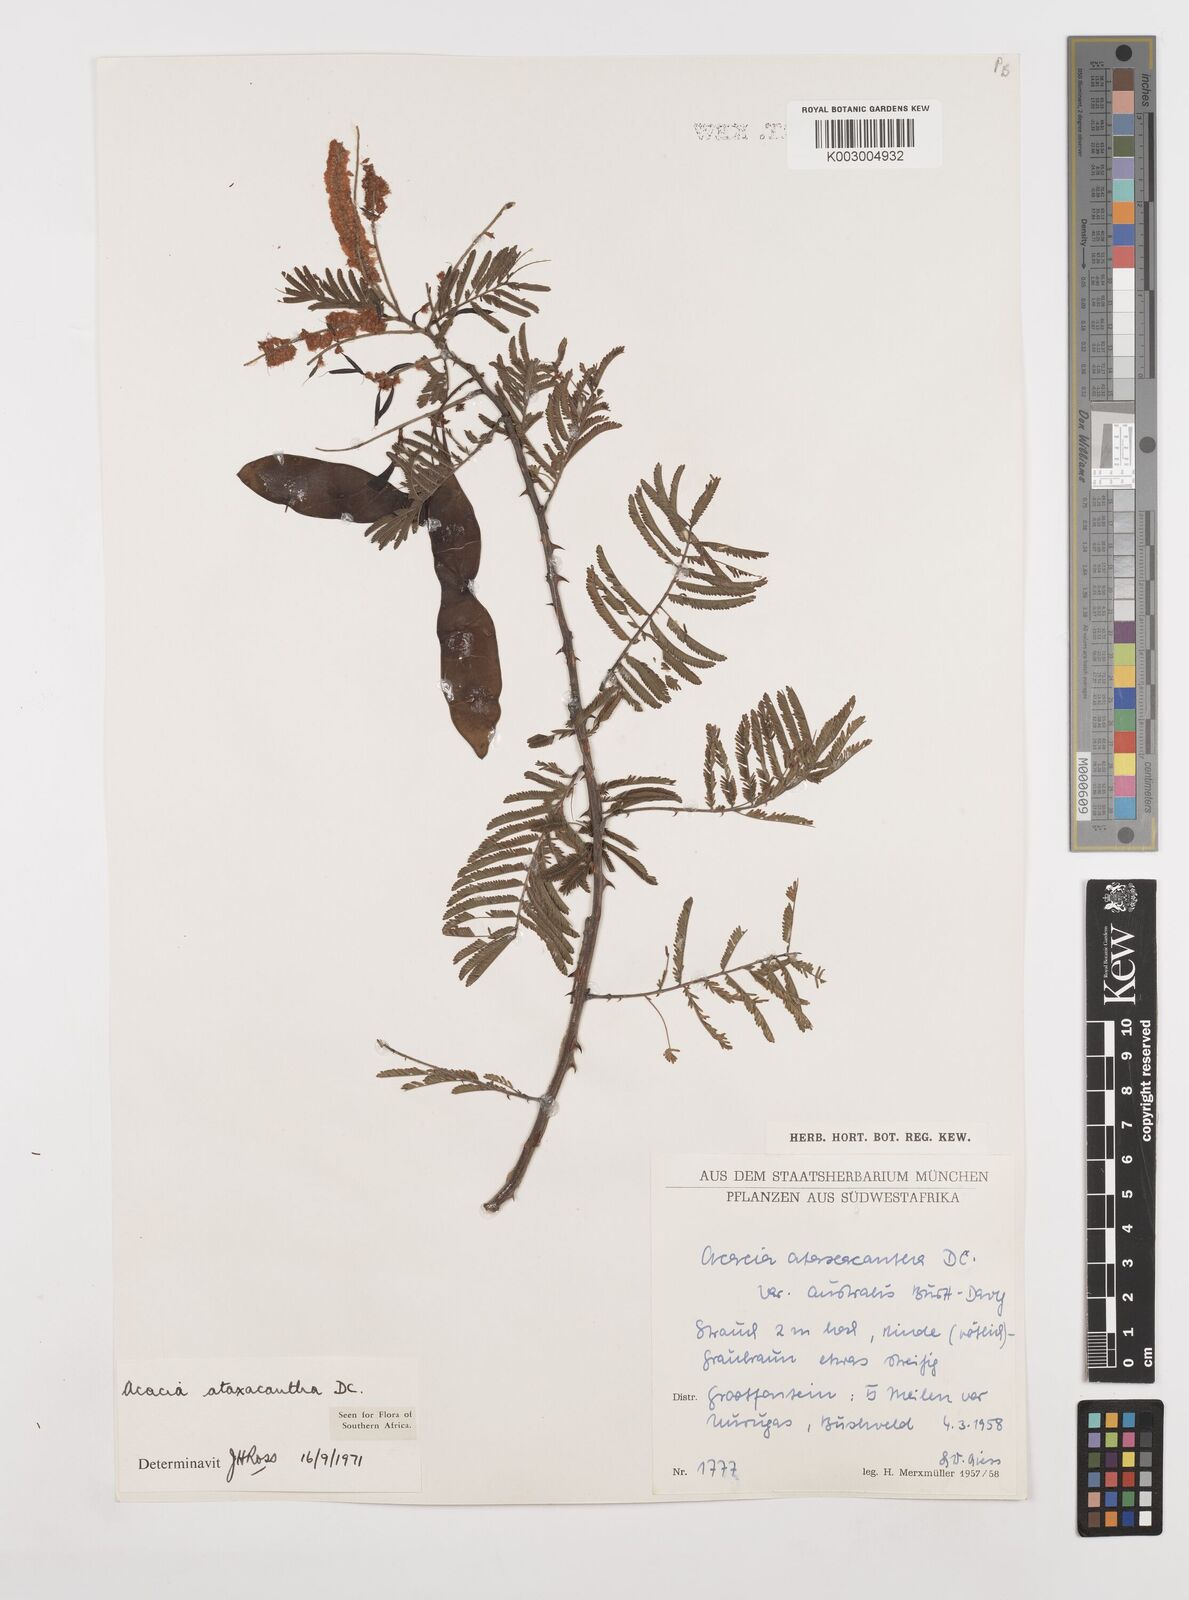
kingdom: Plantae
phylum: Tracheophyta
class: Magnoliopsida
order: Fabales
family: Fabaceae
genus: Senegalia
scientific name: Senegalia ataxacantha
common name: Flame acacia
